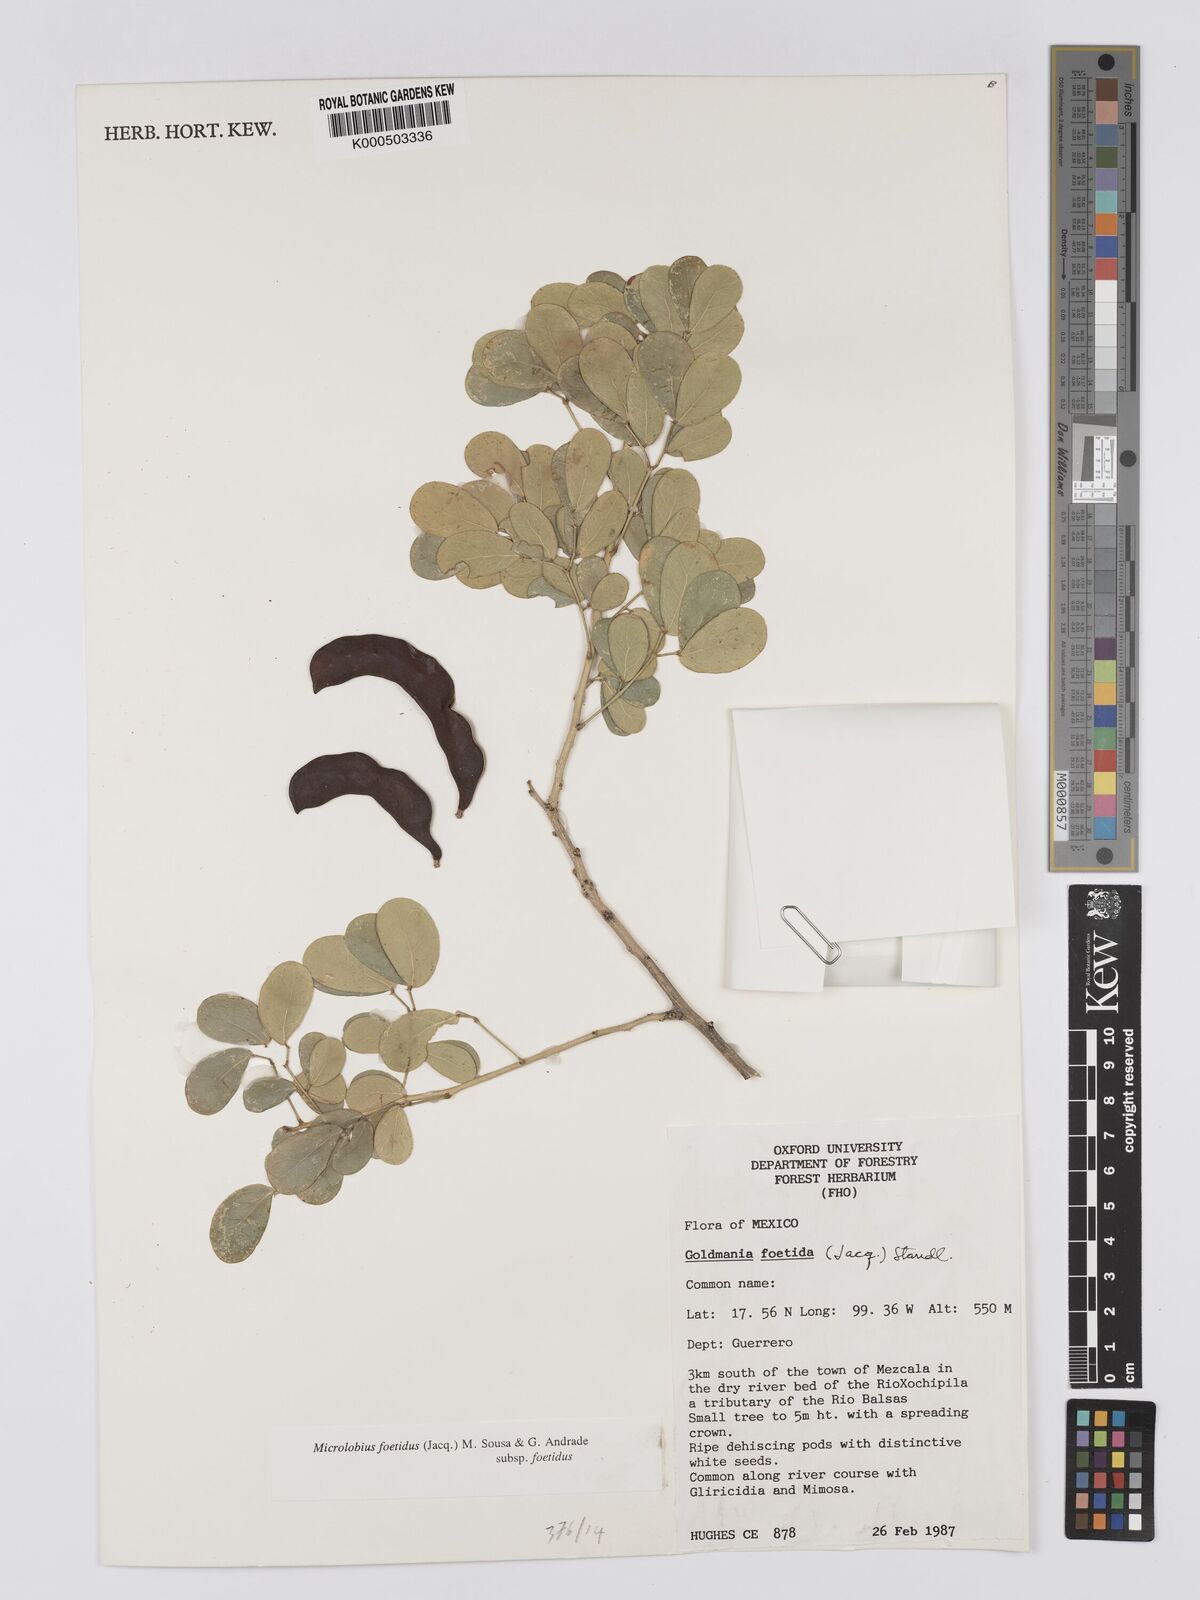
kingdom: Plantae
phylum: Tracheophyta
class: Magnoliopsida
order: Fabales
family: Fabaceae
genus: Microlobius
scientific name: Microlobius foetidus
